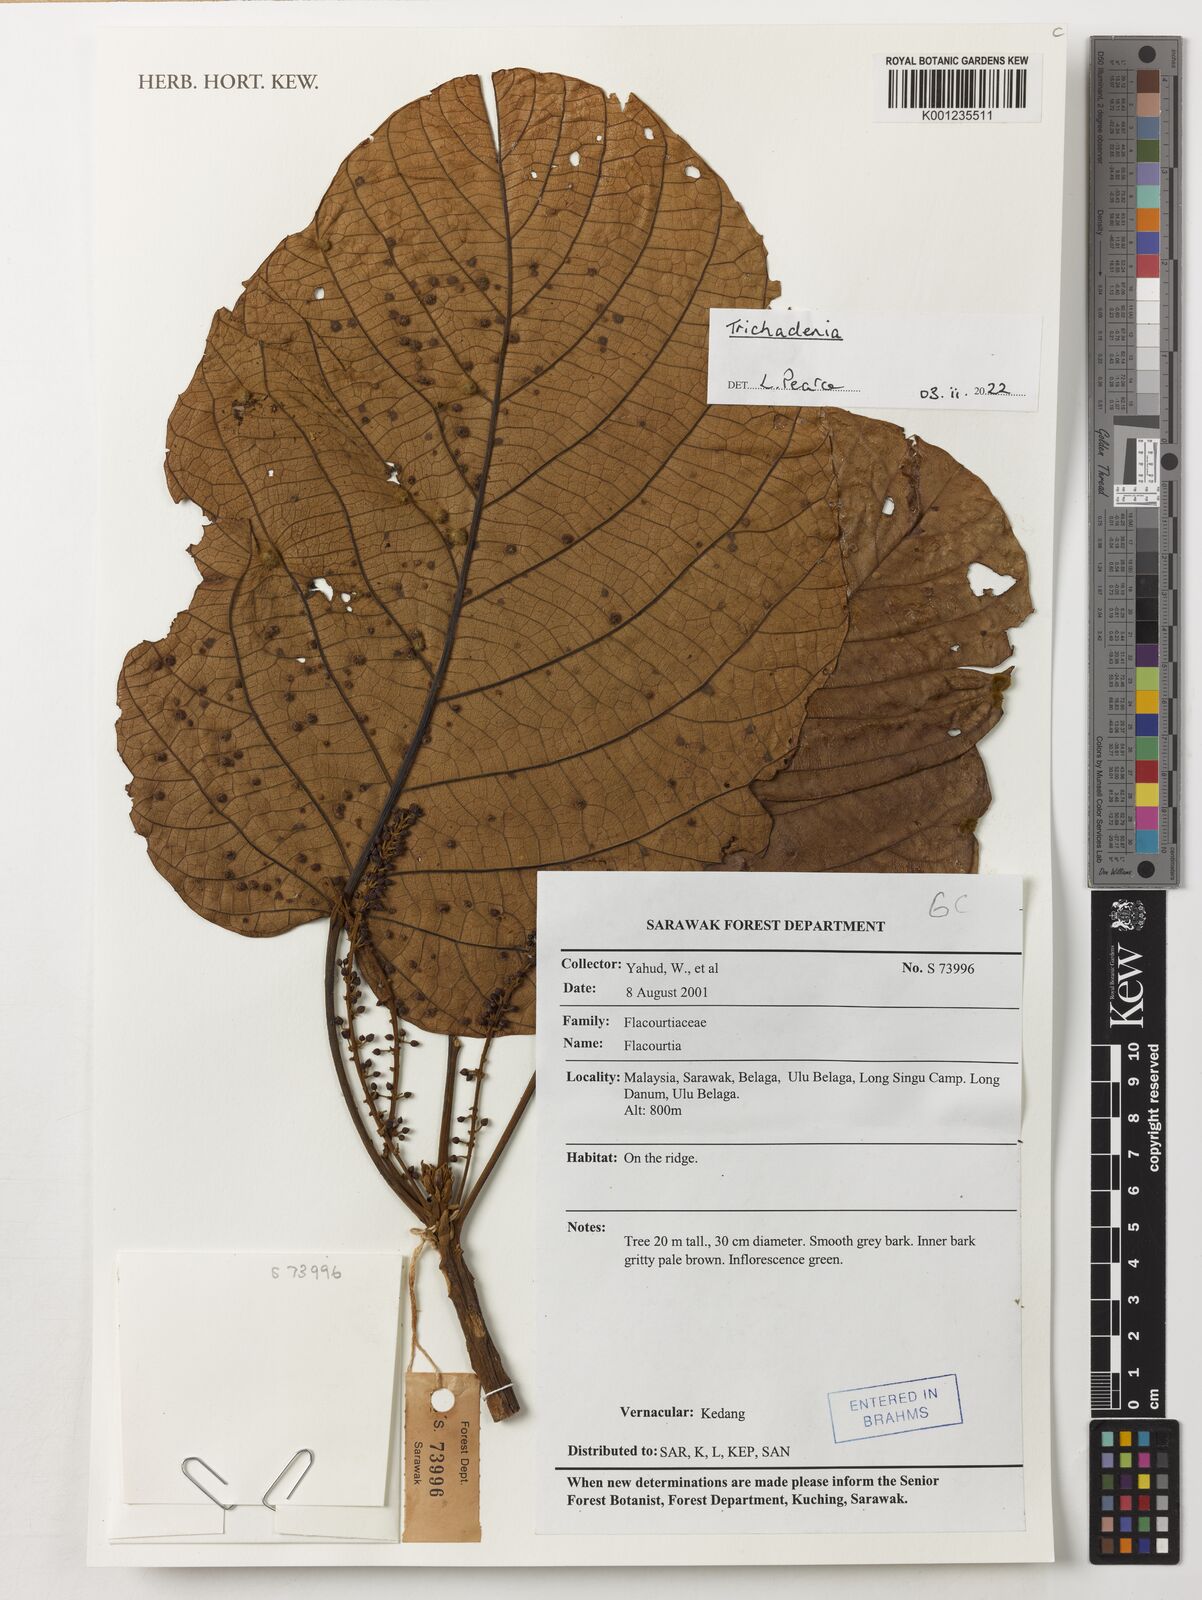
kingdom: Plantae
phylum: Tracheophyta
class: Magnoliopsida
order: Malpighiales
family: Achariaceae
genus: Trichadenia
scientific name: Trichadenia
